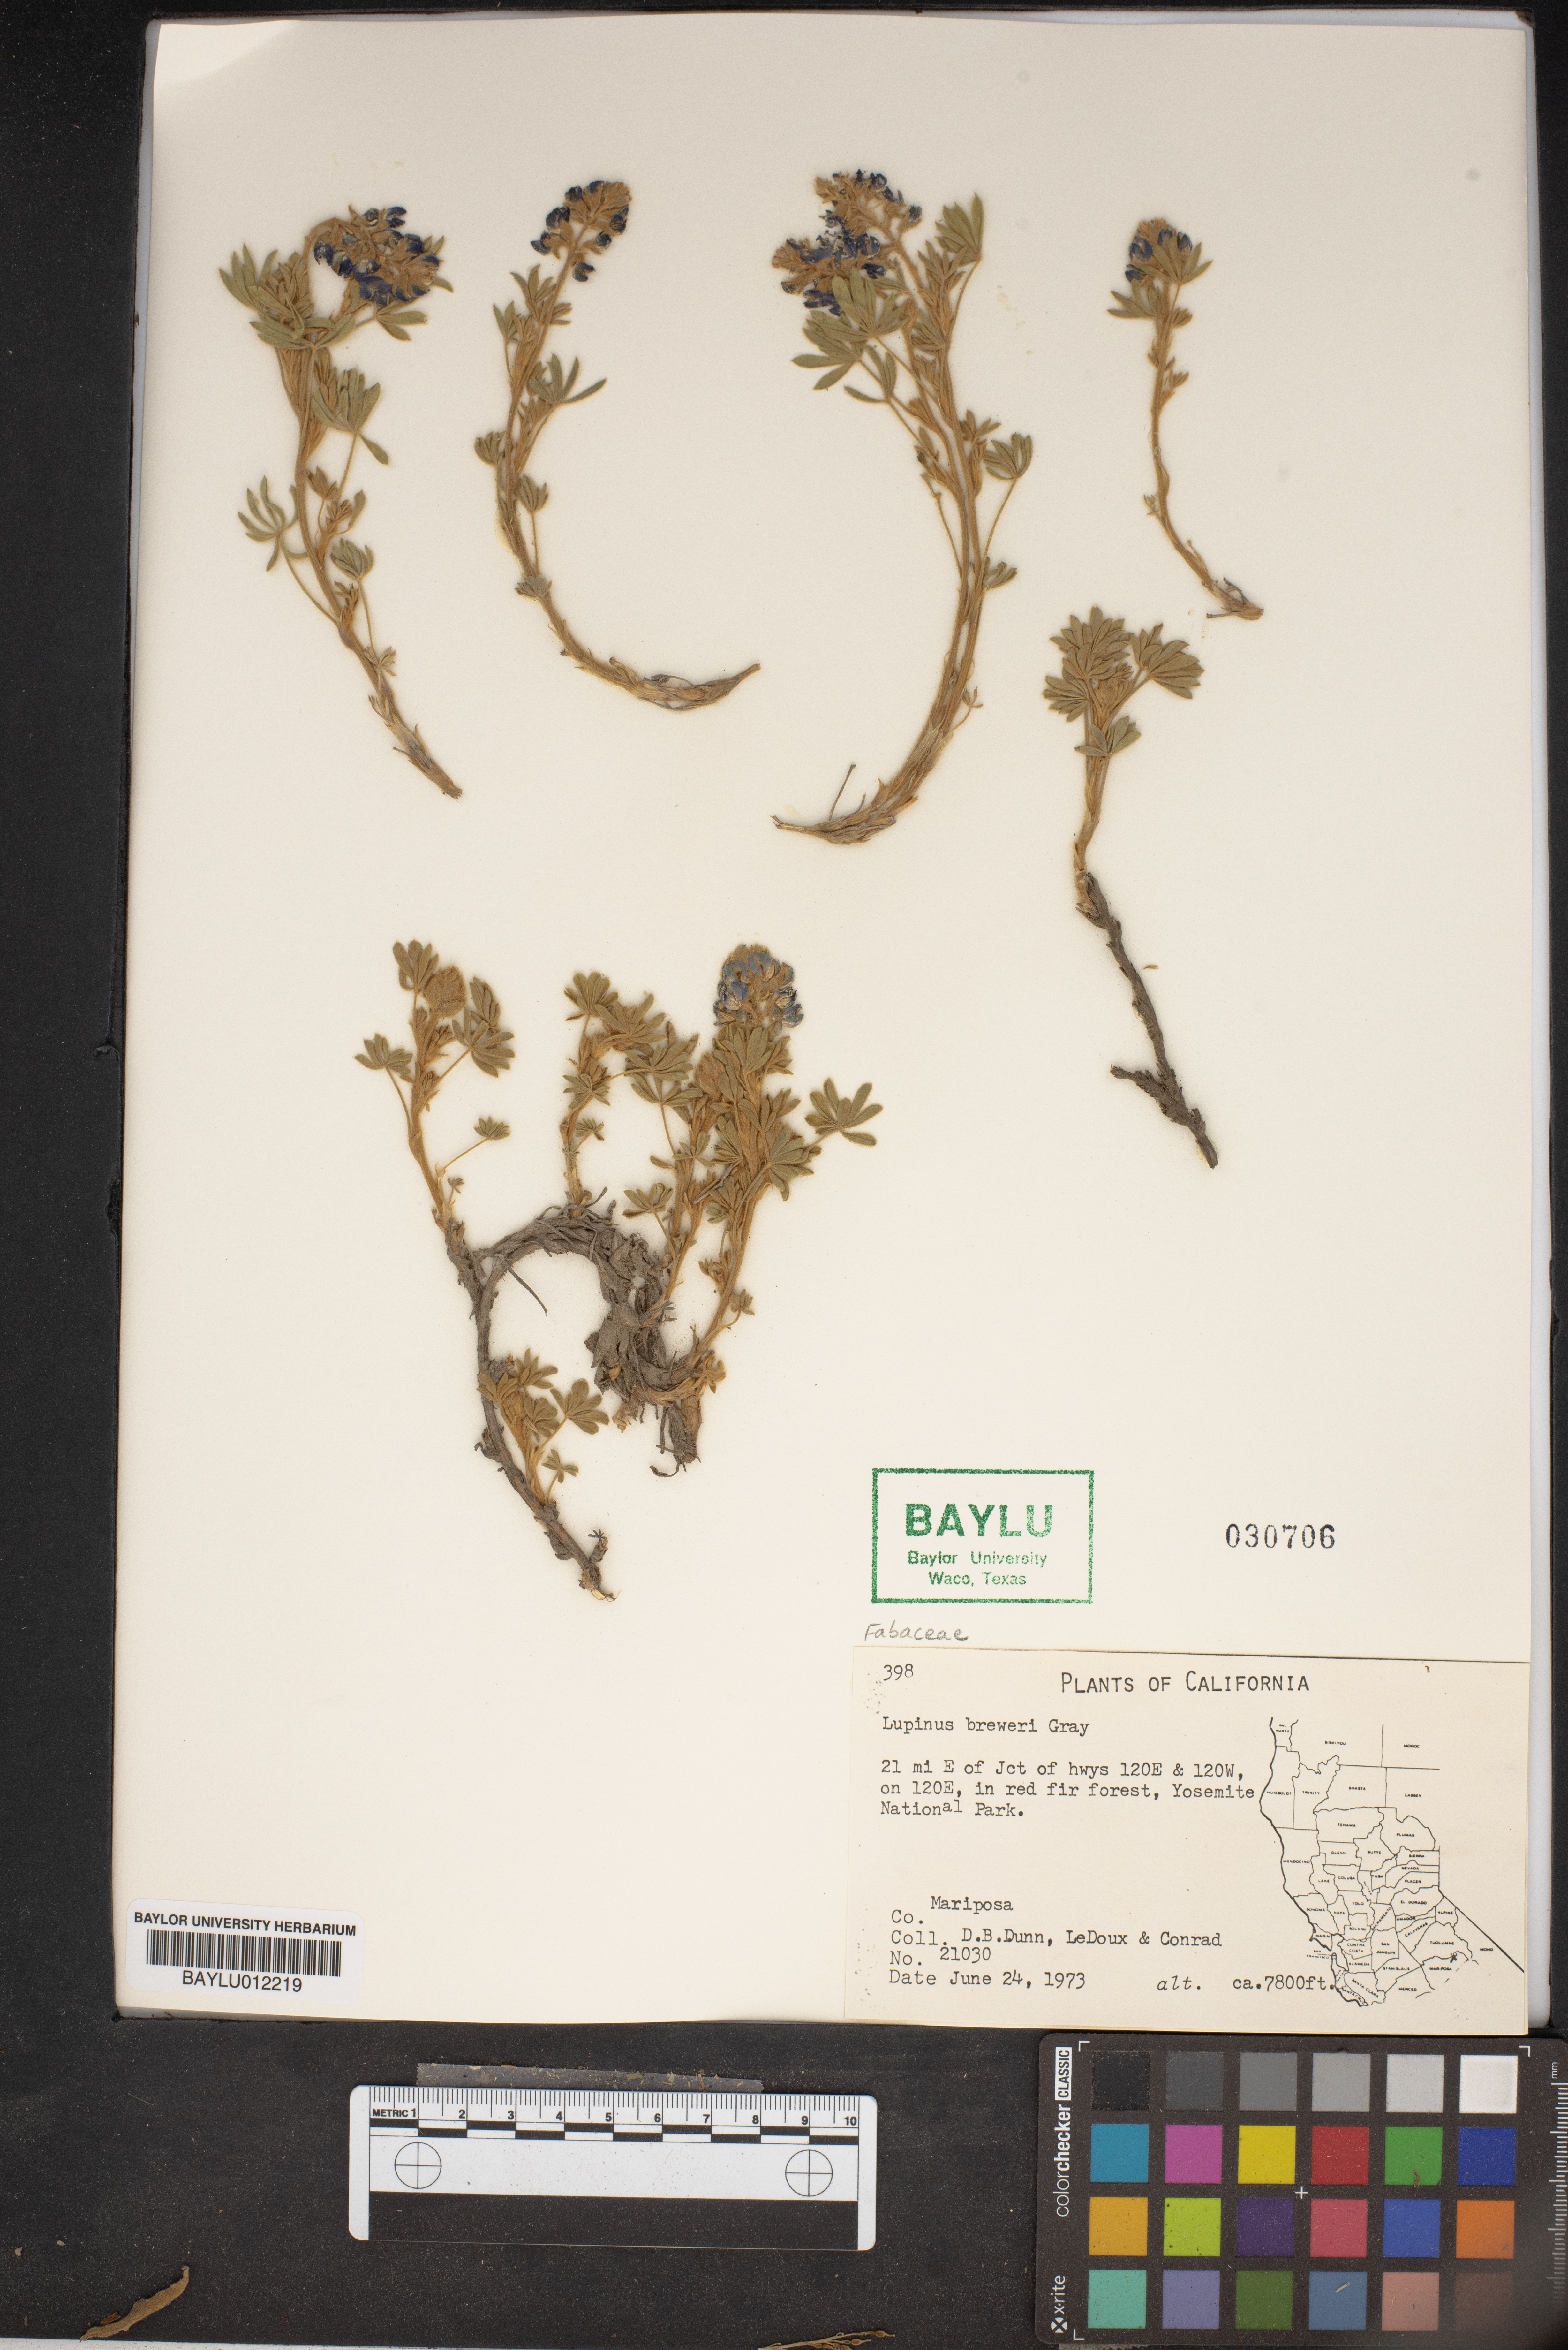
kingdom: Plantae
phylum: Tracheophyta
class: Magnoliopsida
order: Fabales
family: Fabaceae
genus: Lupinus
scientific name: Lupinus breweri
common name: Brewer's lupine
